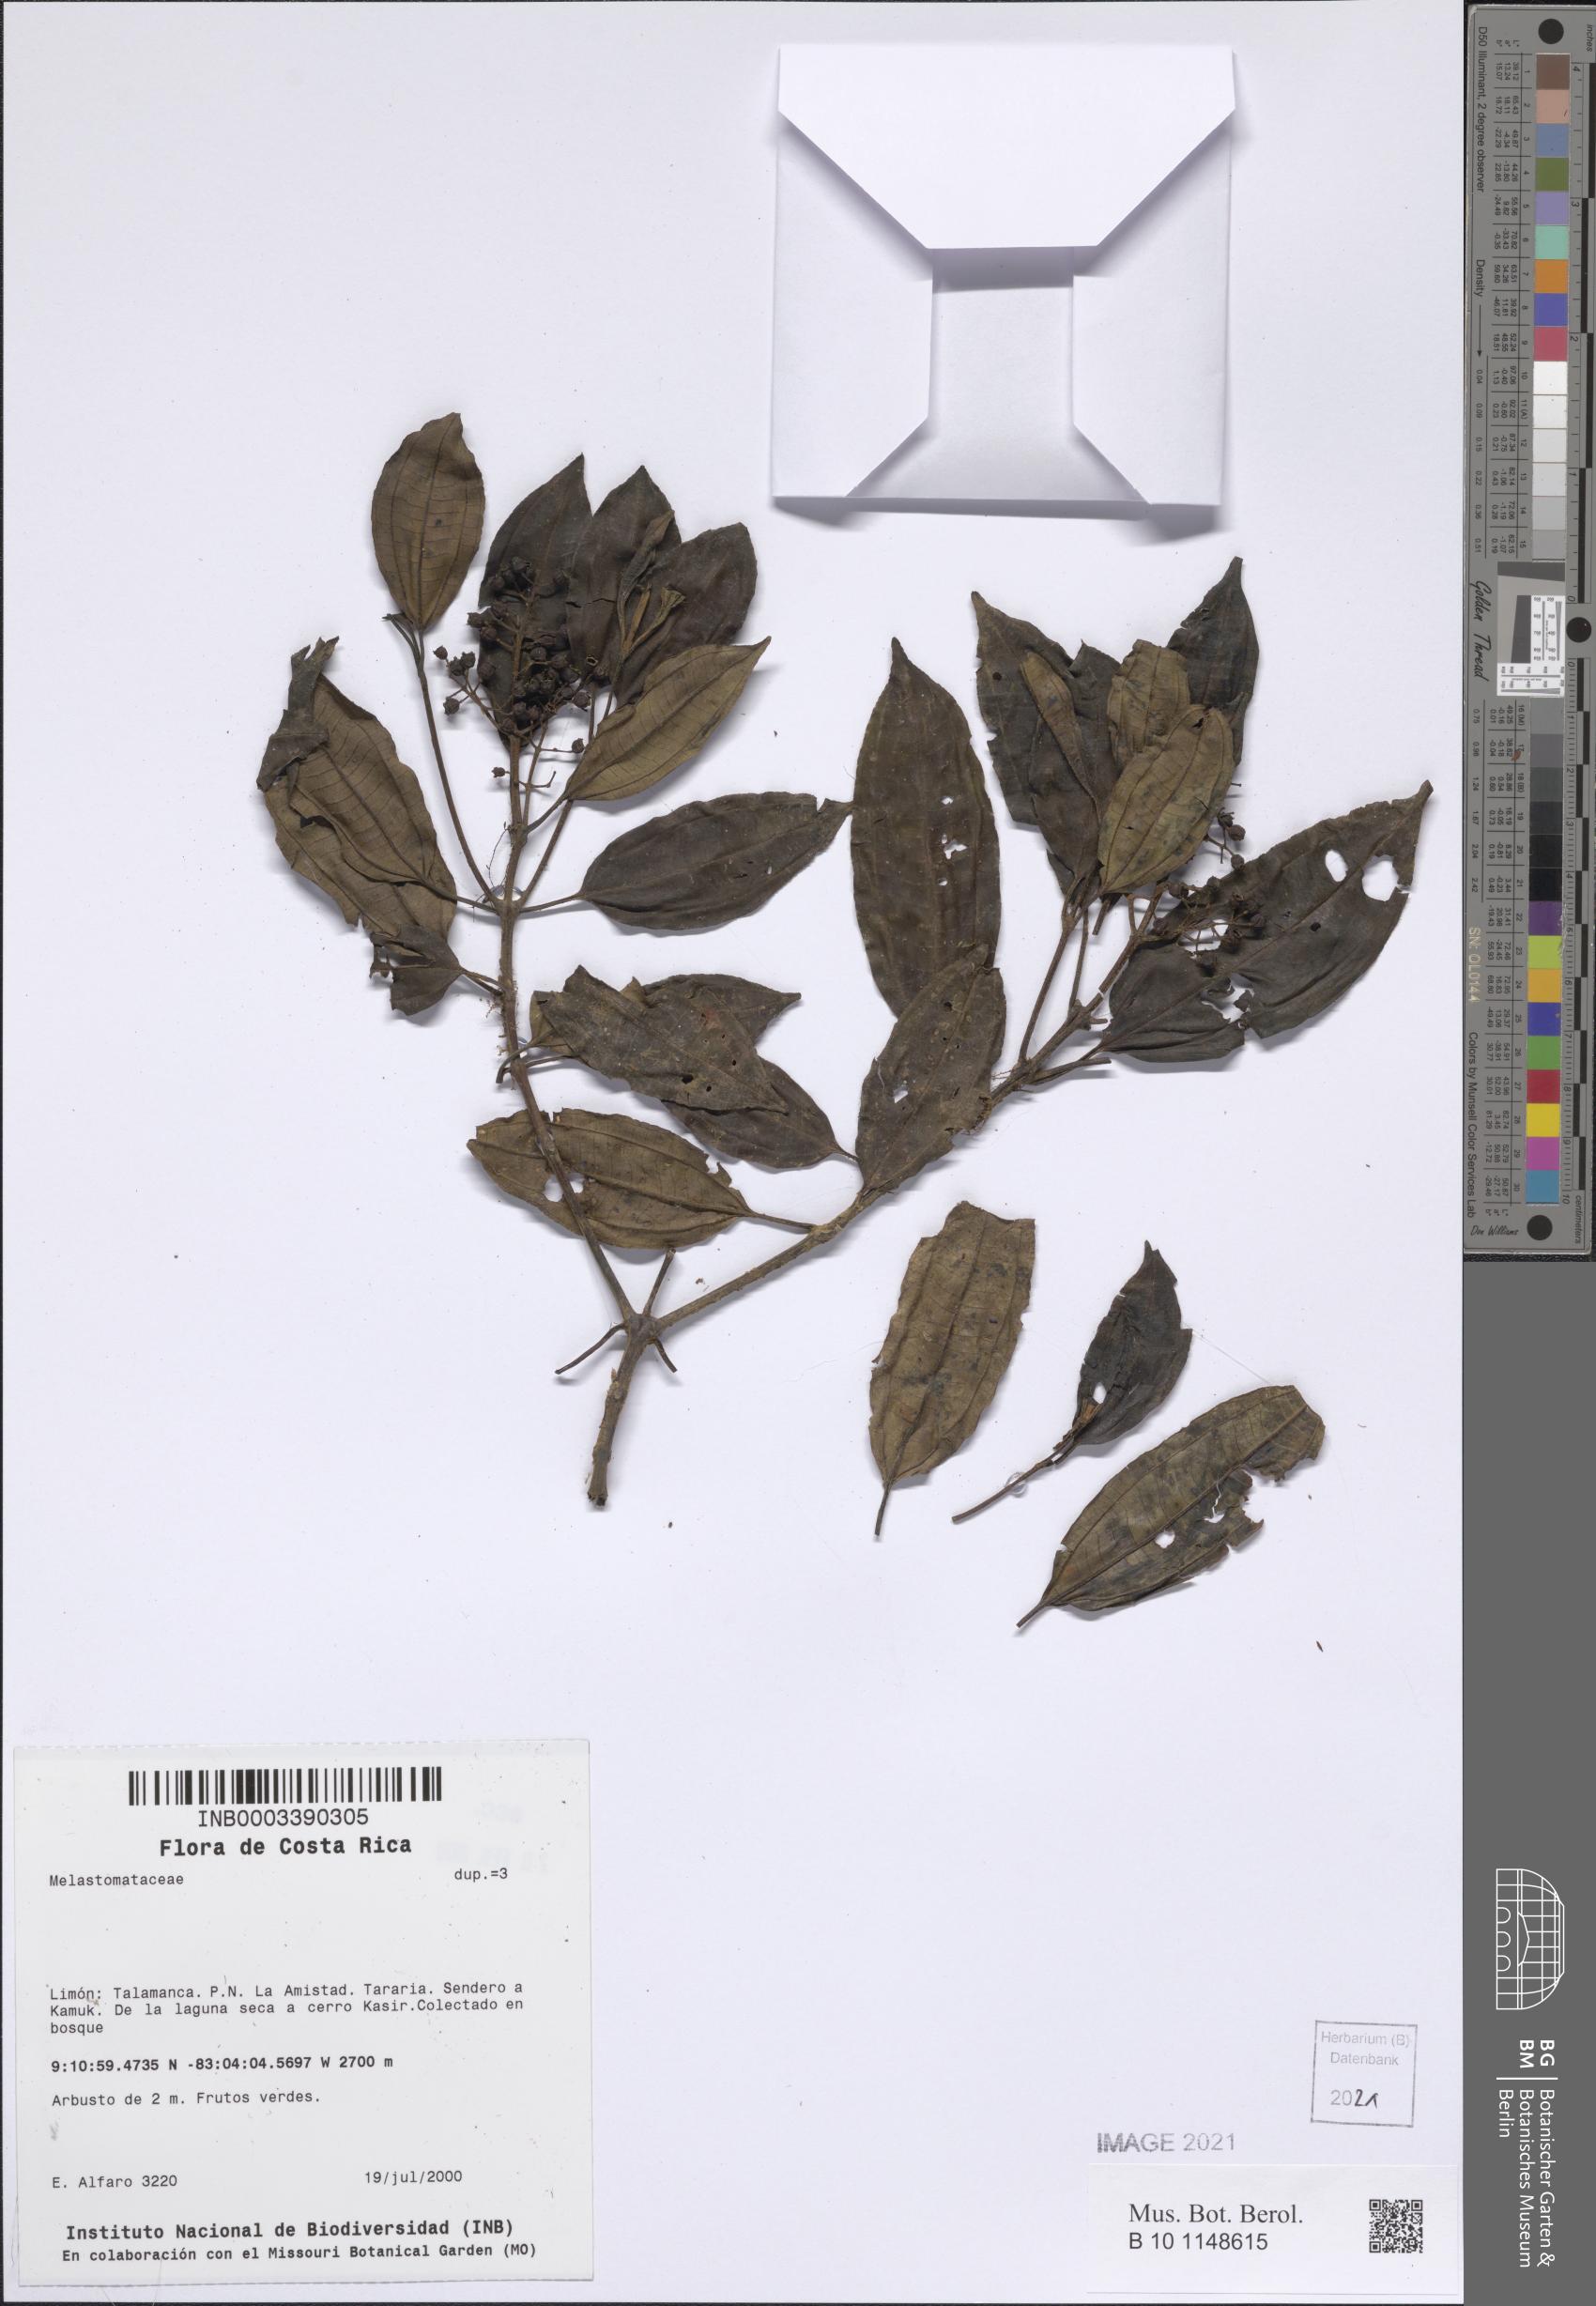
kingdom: Plantae
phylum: Tracheophyta
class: Magnoliopsida
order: Myrtales
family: Melastomataceae
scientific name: Melastomataceae
